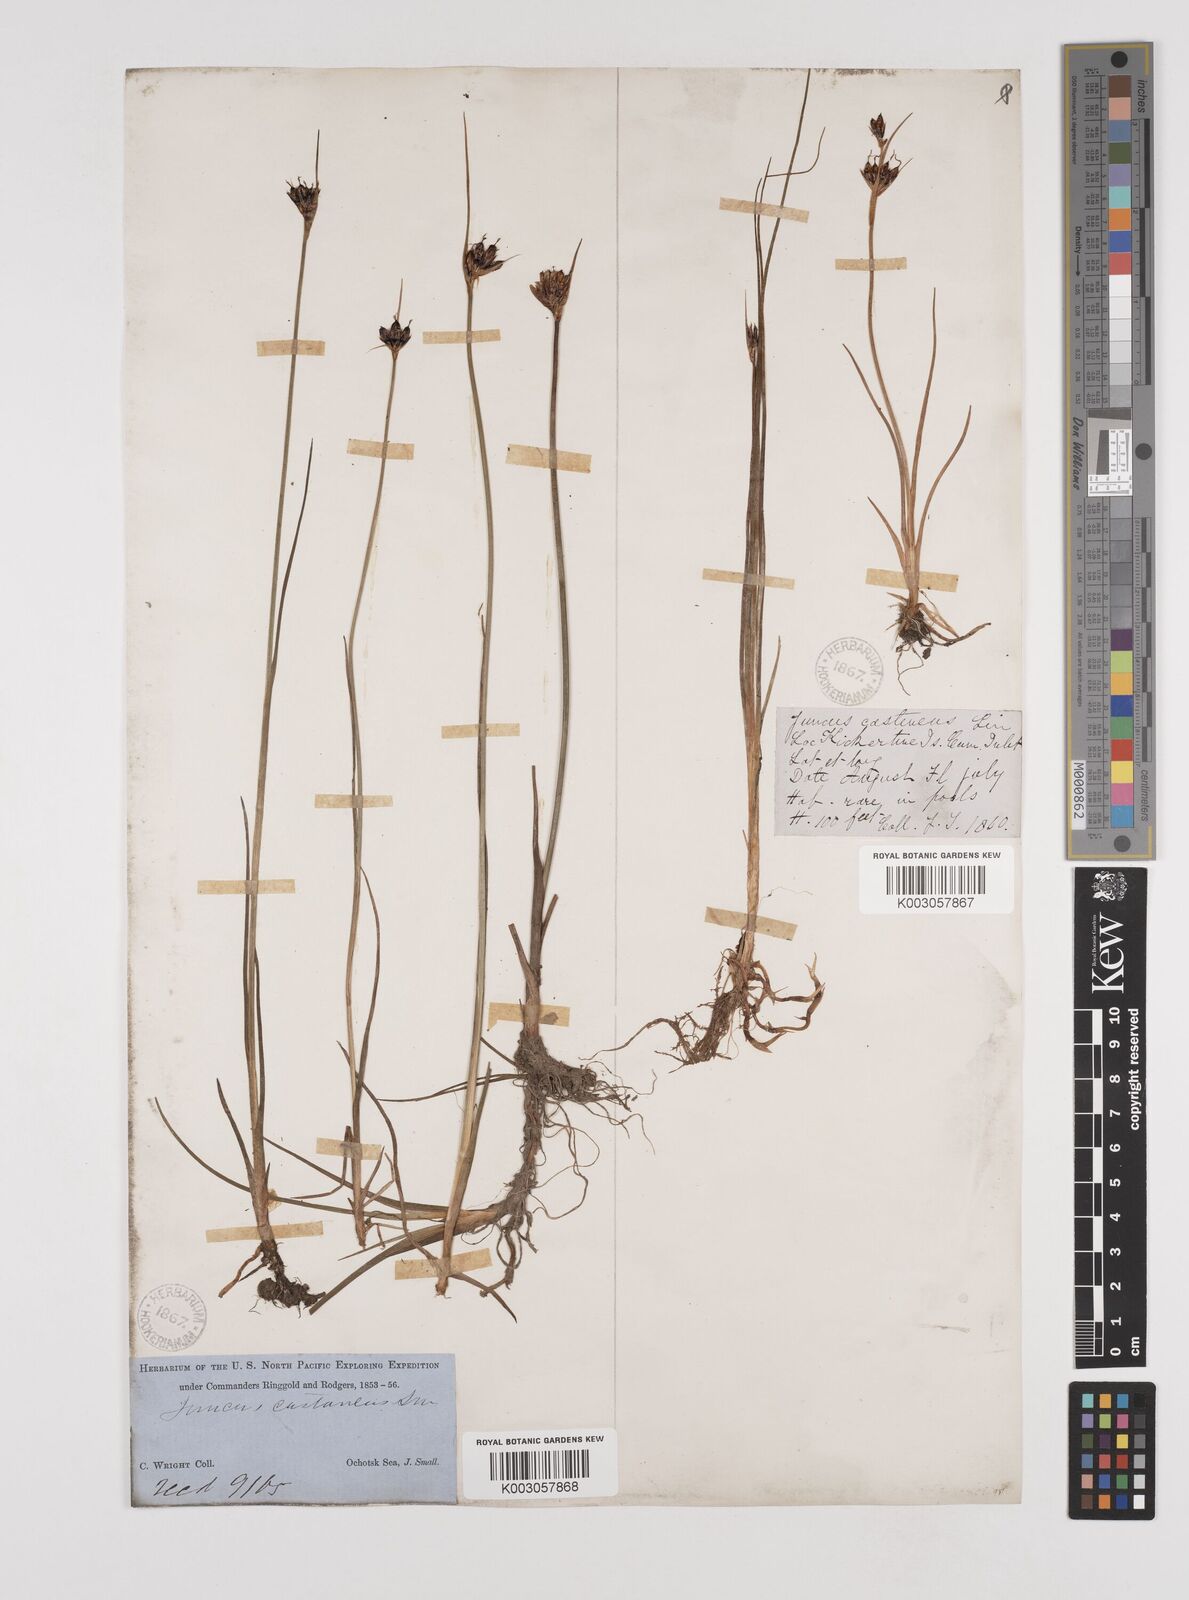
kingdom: Plantae
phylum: Tracheophyta
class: Liliopsida
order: Poales
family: Juncaceae
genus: Juncus
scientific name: Juncus castaneus
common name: Chestnut rush
